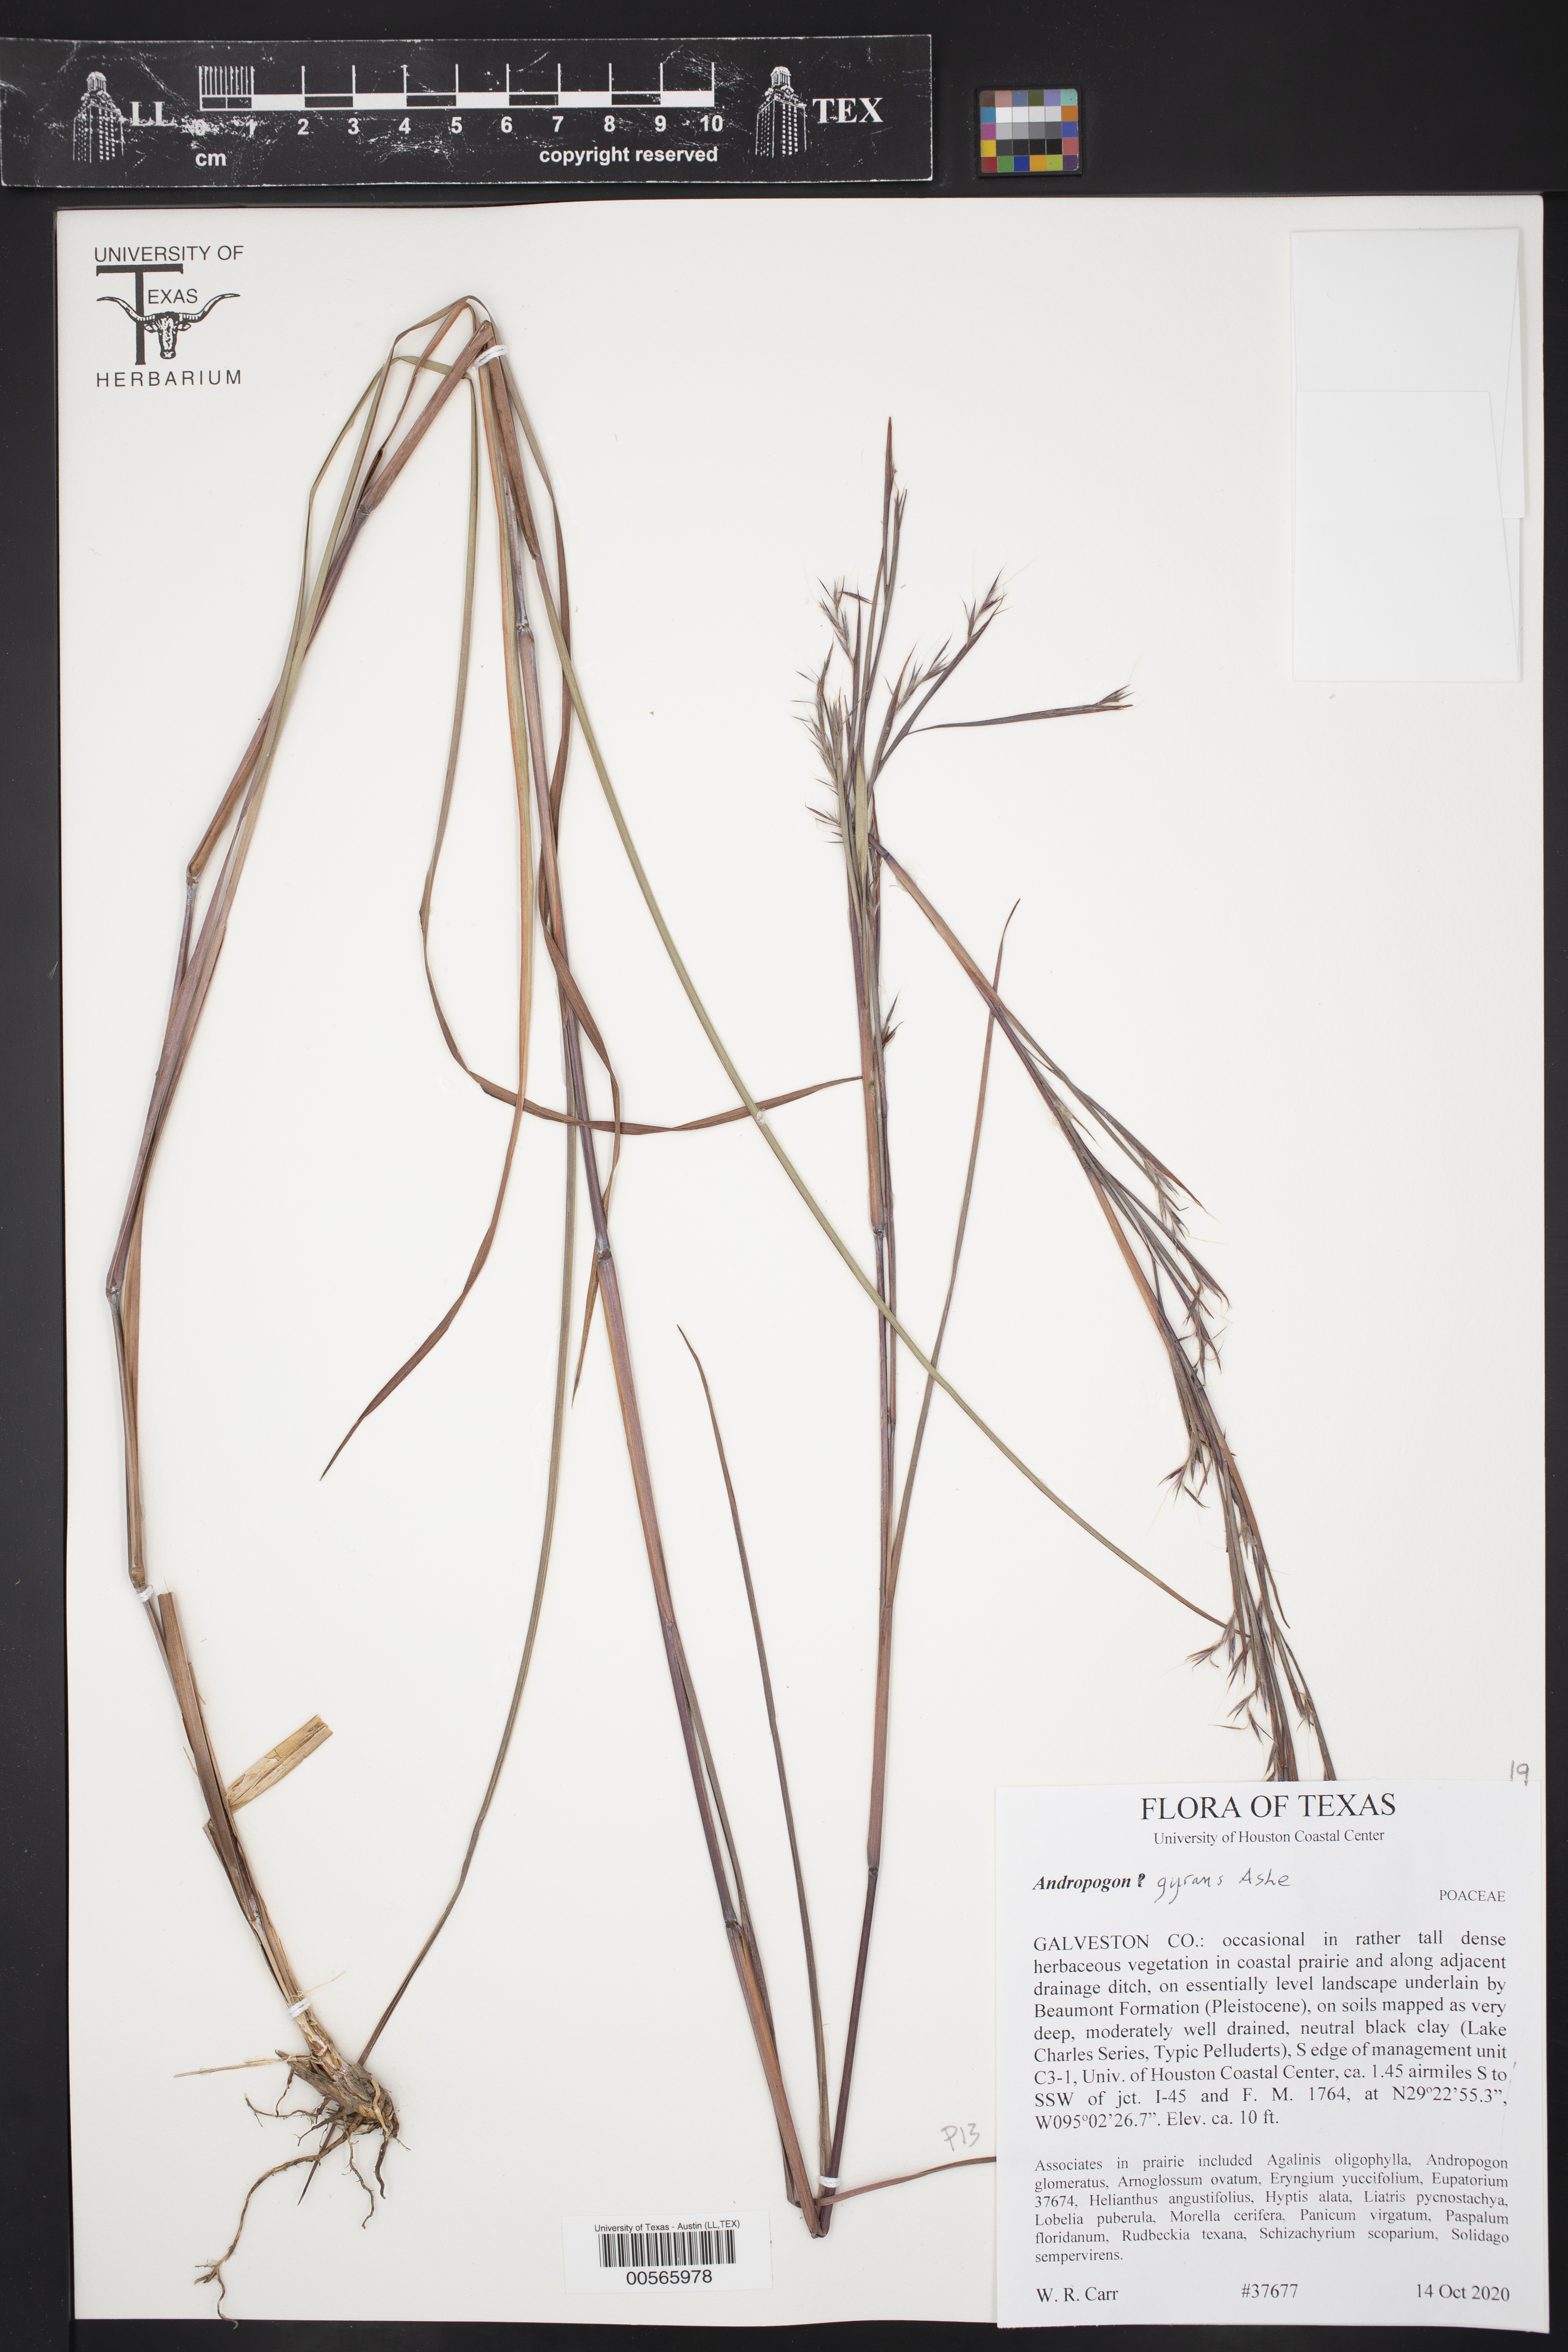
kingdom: Plantae
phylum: Tracheophyta
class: Liliopsida
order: Poales
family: Poaceae
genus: Andropogon
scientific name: Andropogon gyrans
